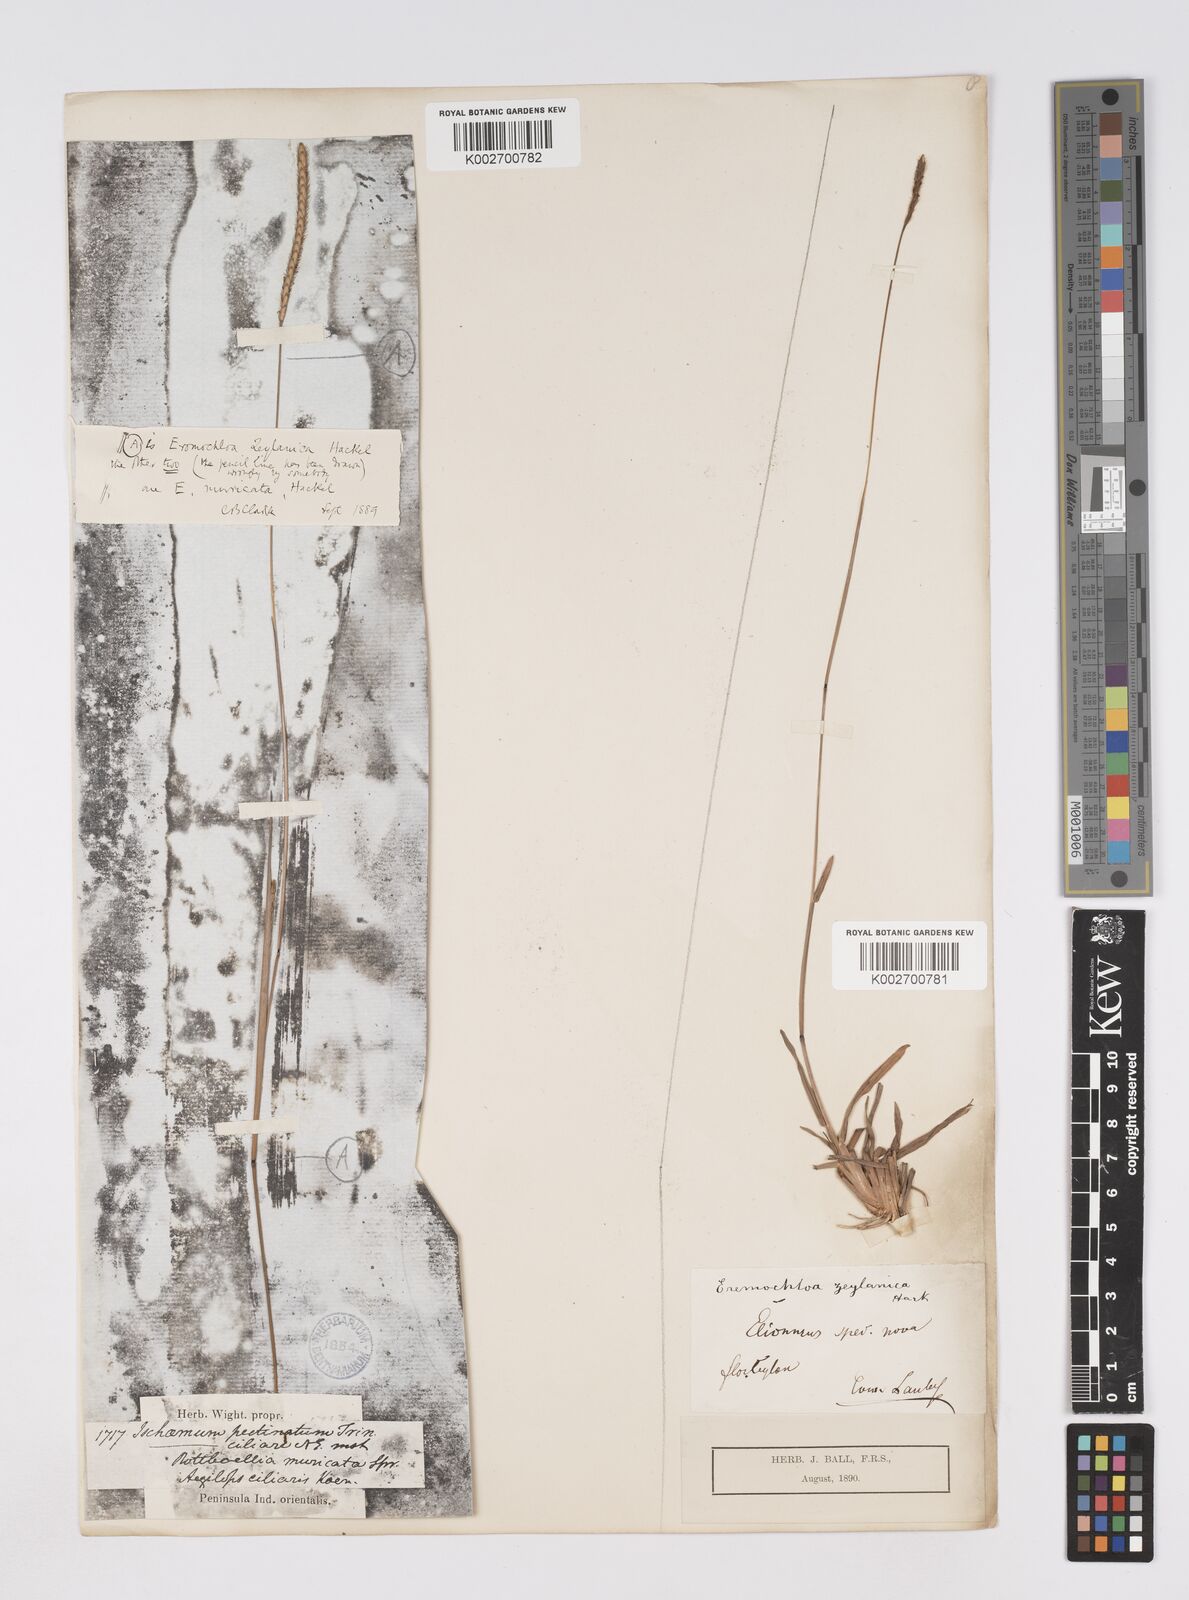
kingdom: Plantae
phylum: Tracheophyta
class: Liliopsida
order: Poales
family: Poaceae
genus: Eremochloa
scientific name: Eremochloa zeylanica
